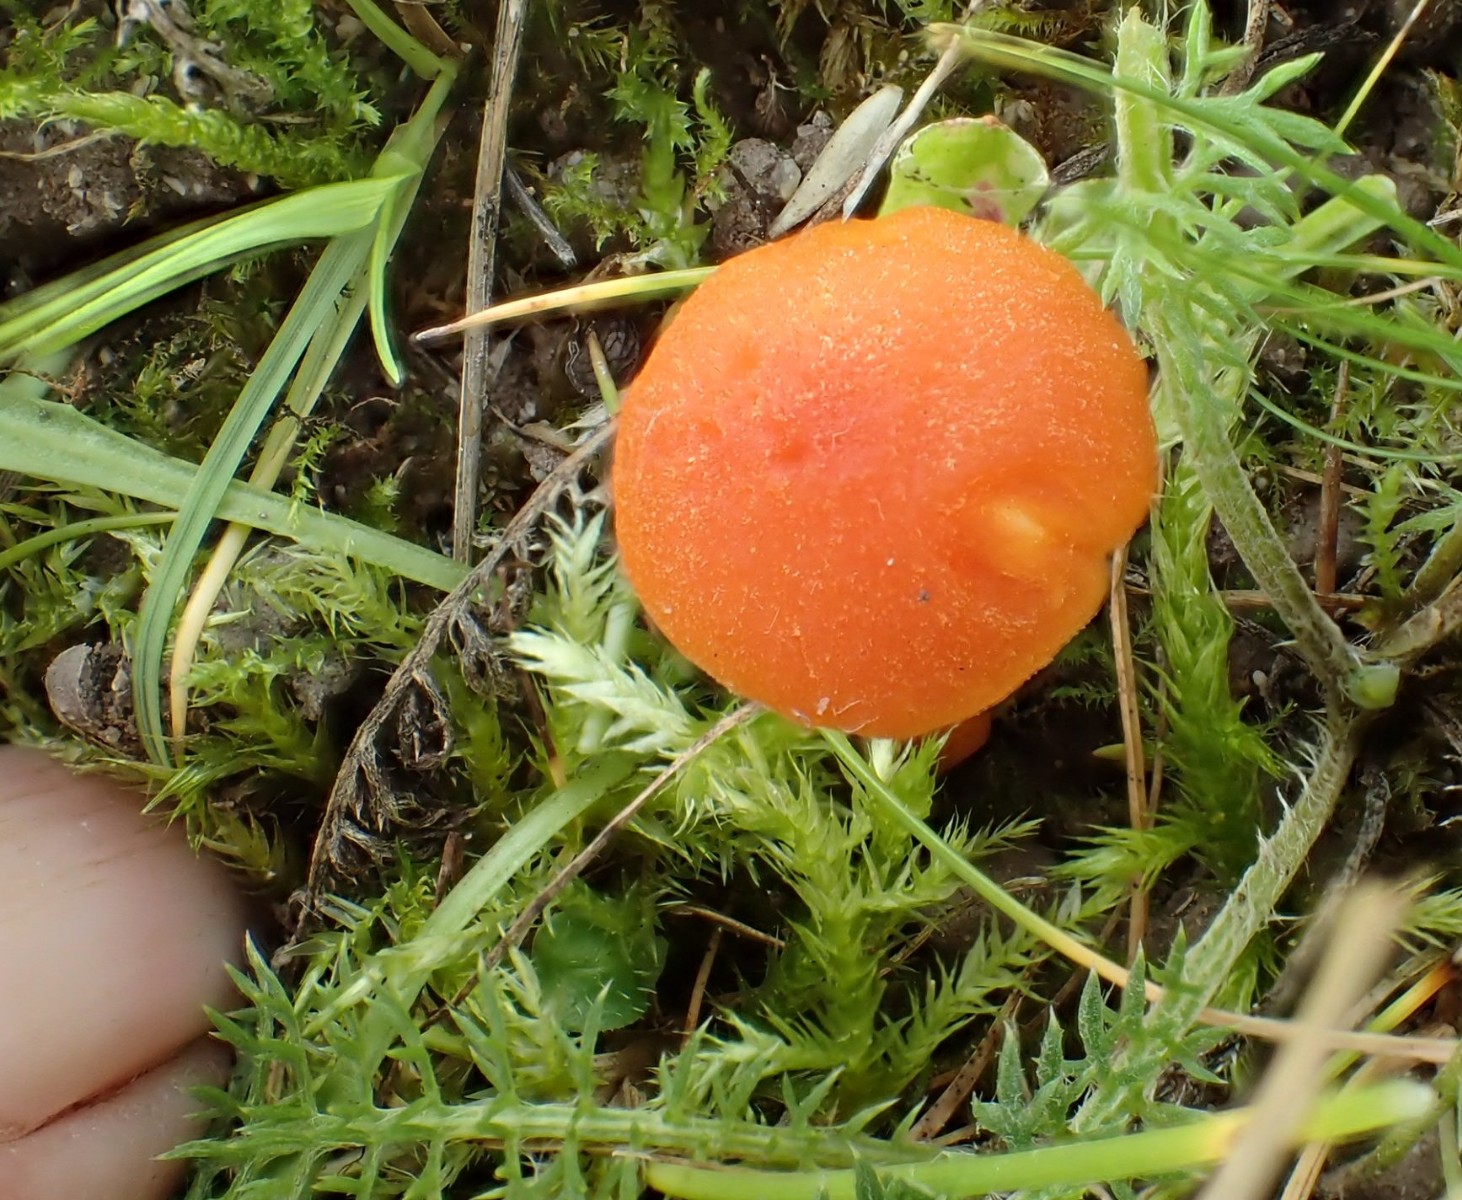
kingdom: Fungi
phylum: Basidiomycota
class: Agaricomycetes
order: Agaricales
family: Hygrophoraceae
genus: Hygrocybe
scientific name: Hygrocybe miniata
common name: mønje-vokshat
